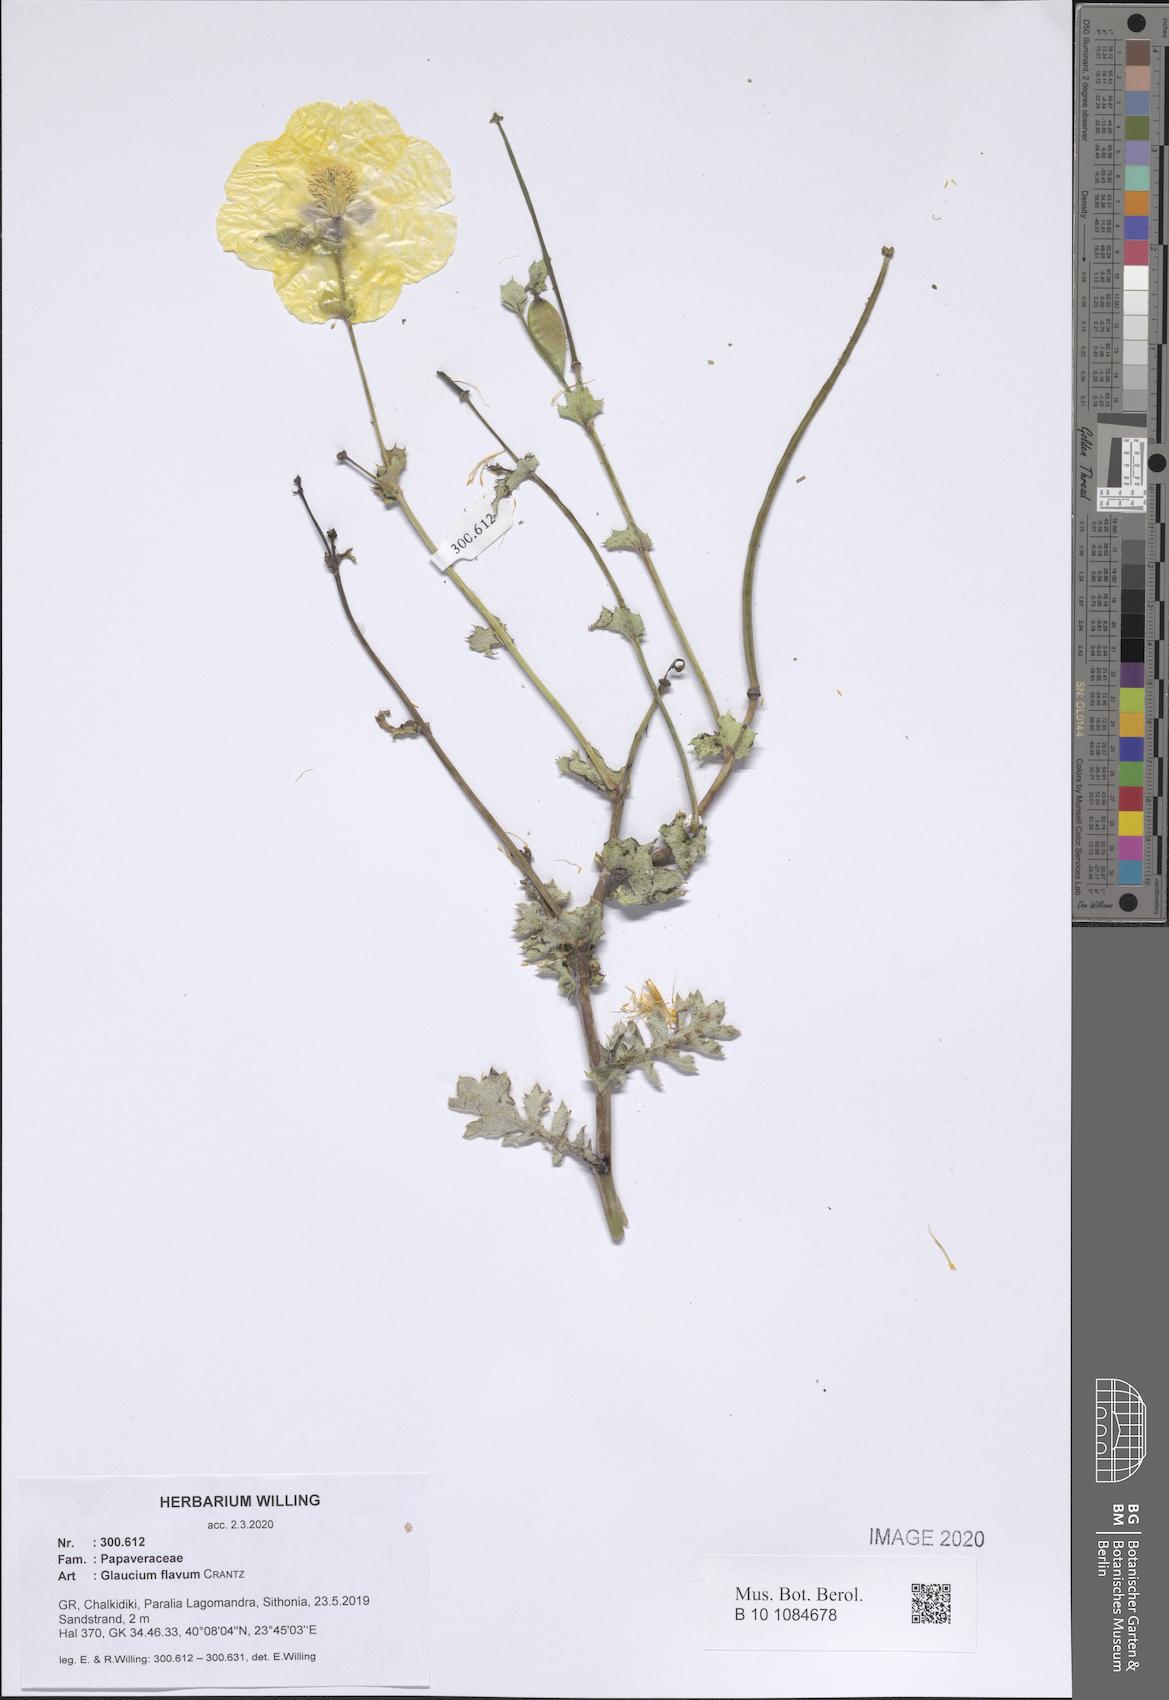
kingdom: Plantae
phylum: Tracheophyta
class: Magnoliopsida
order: Ranunculales
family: Papaveraceae
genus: Glaucium
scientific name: Glaucium flavum
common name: Yellow horned-poppy
